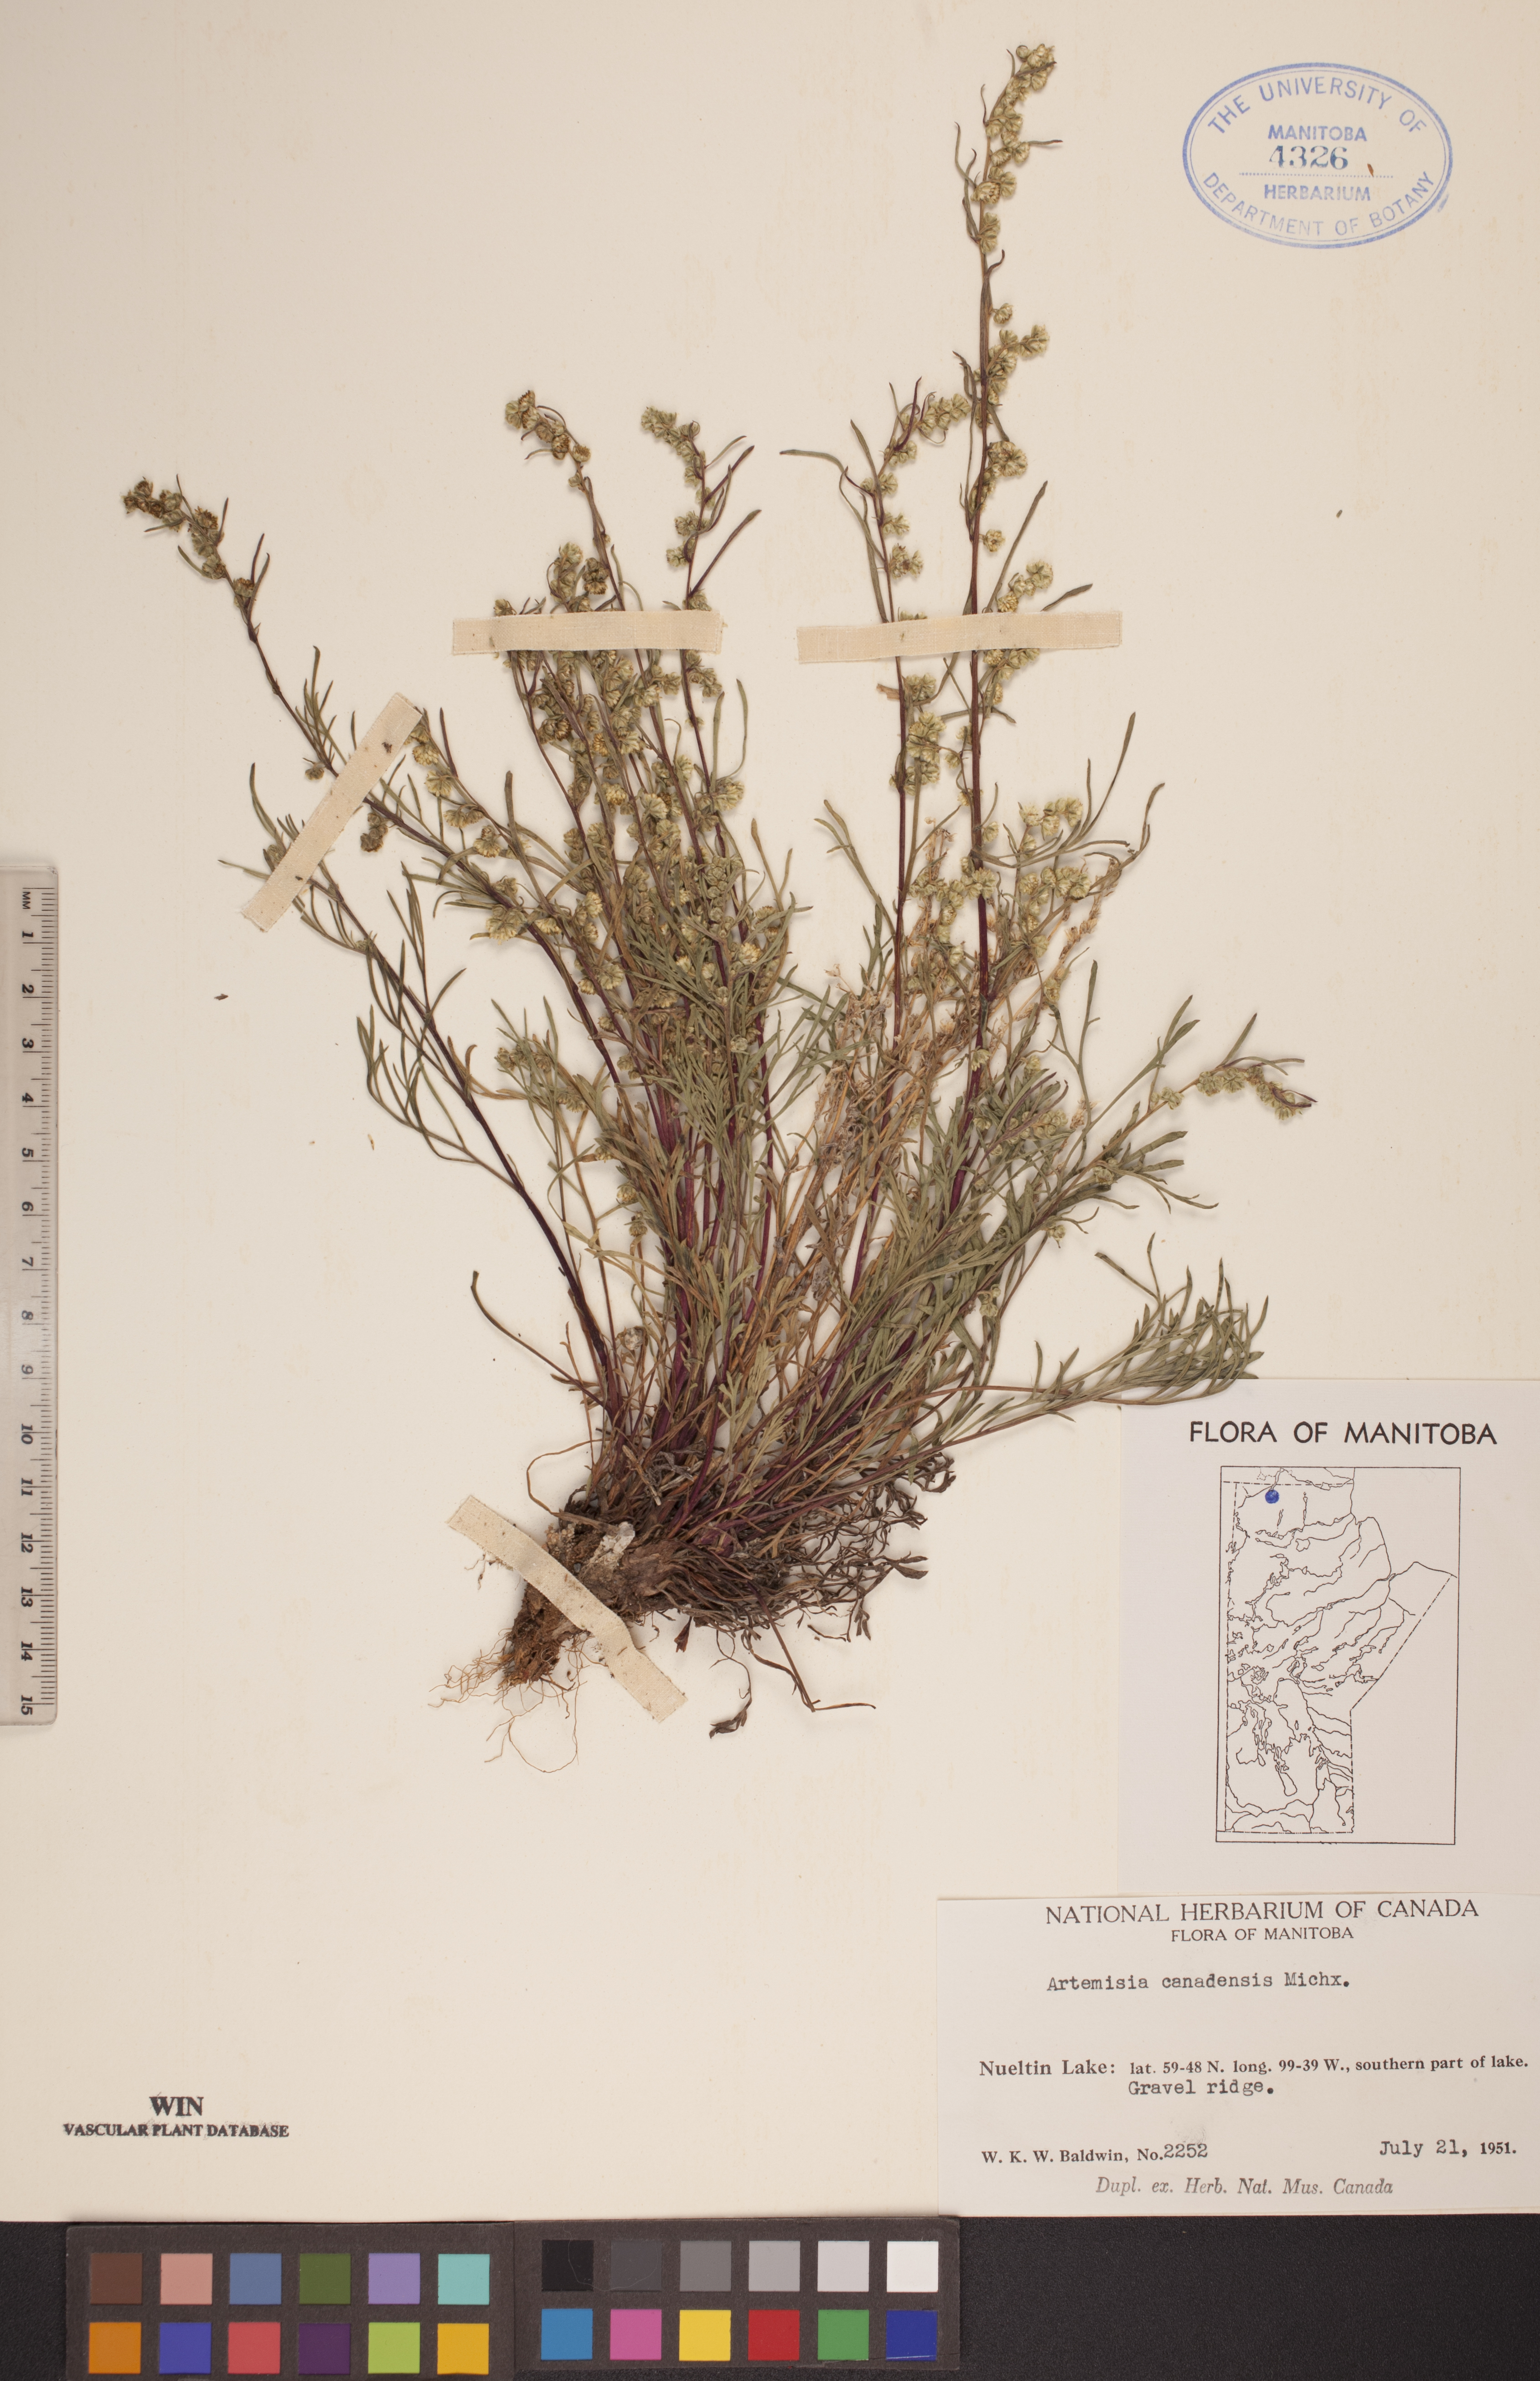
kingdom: Plantae
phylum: Tracheophyta
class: Magnoliopsida
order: Asterales
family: Asteraceae
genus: Artemisia
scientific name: Artemisia campestris
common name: Field wormwood
